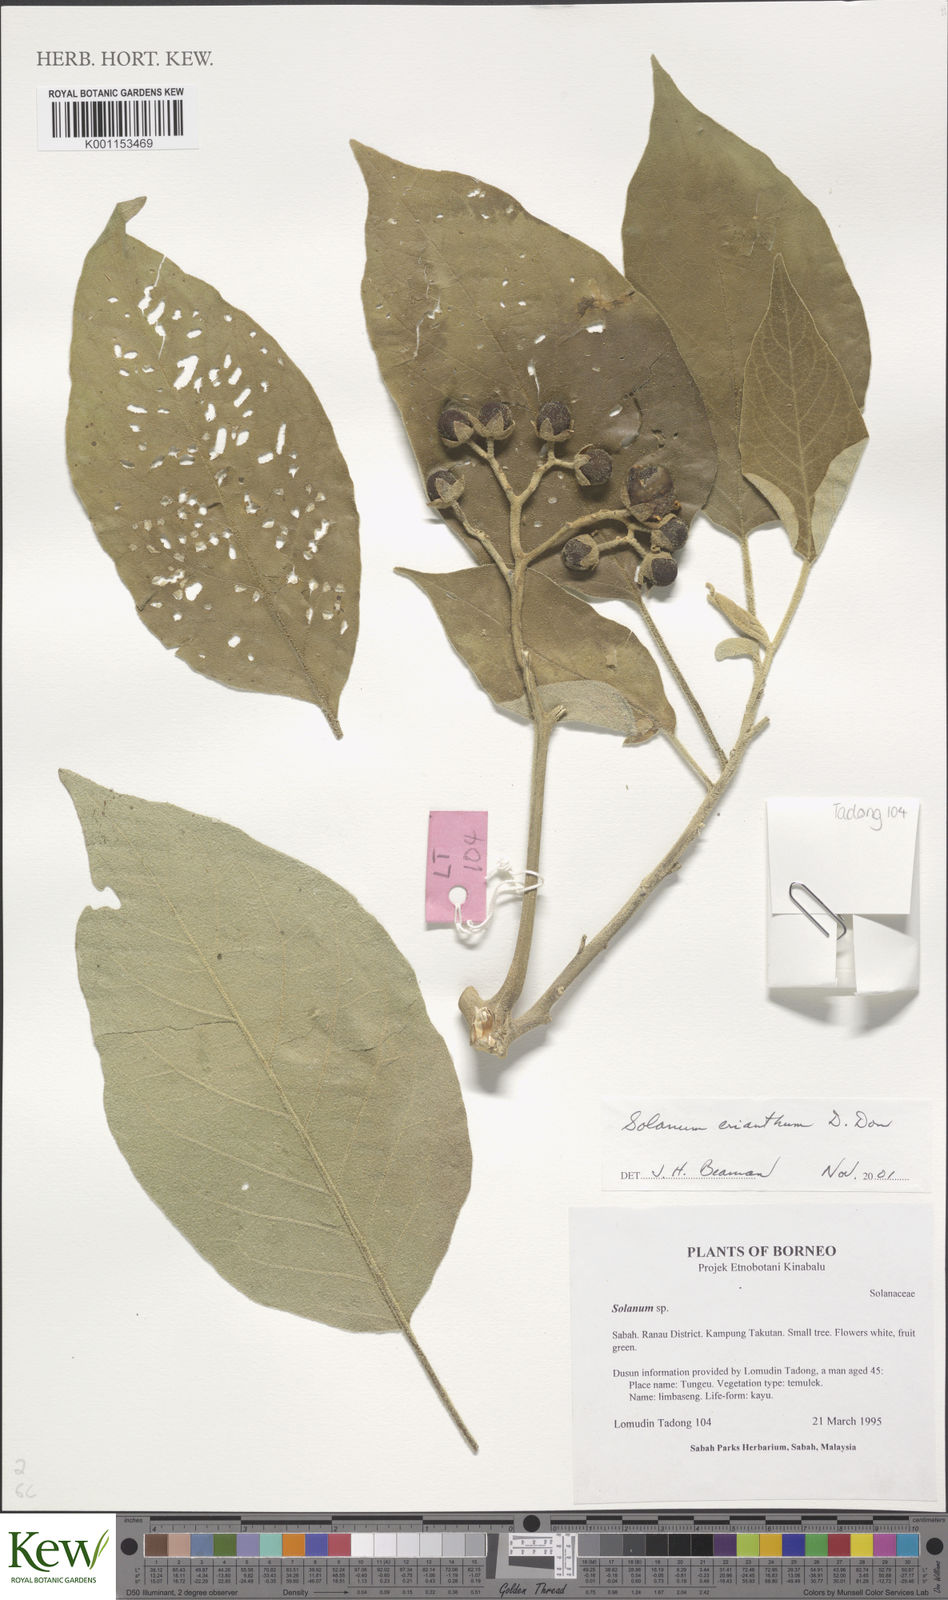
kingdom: Plantae
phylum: Tracheophyta
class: Magnoliopsida
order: Solanales
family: Solanaceae
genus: Solanum
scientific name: Solanum erianthum
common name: Tobacco-tree
